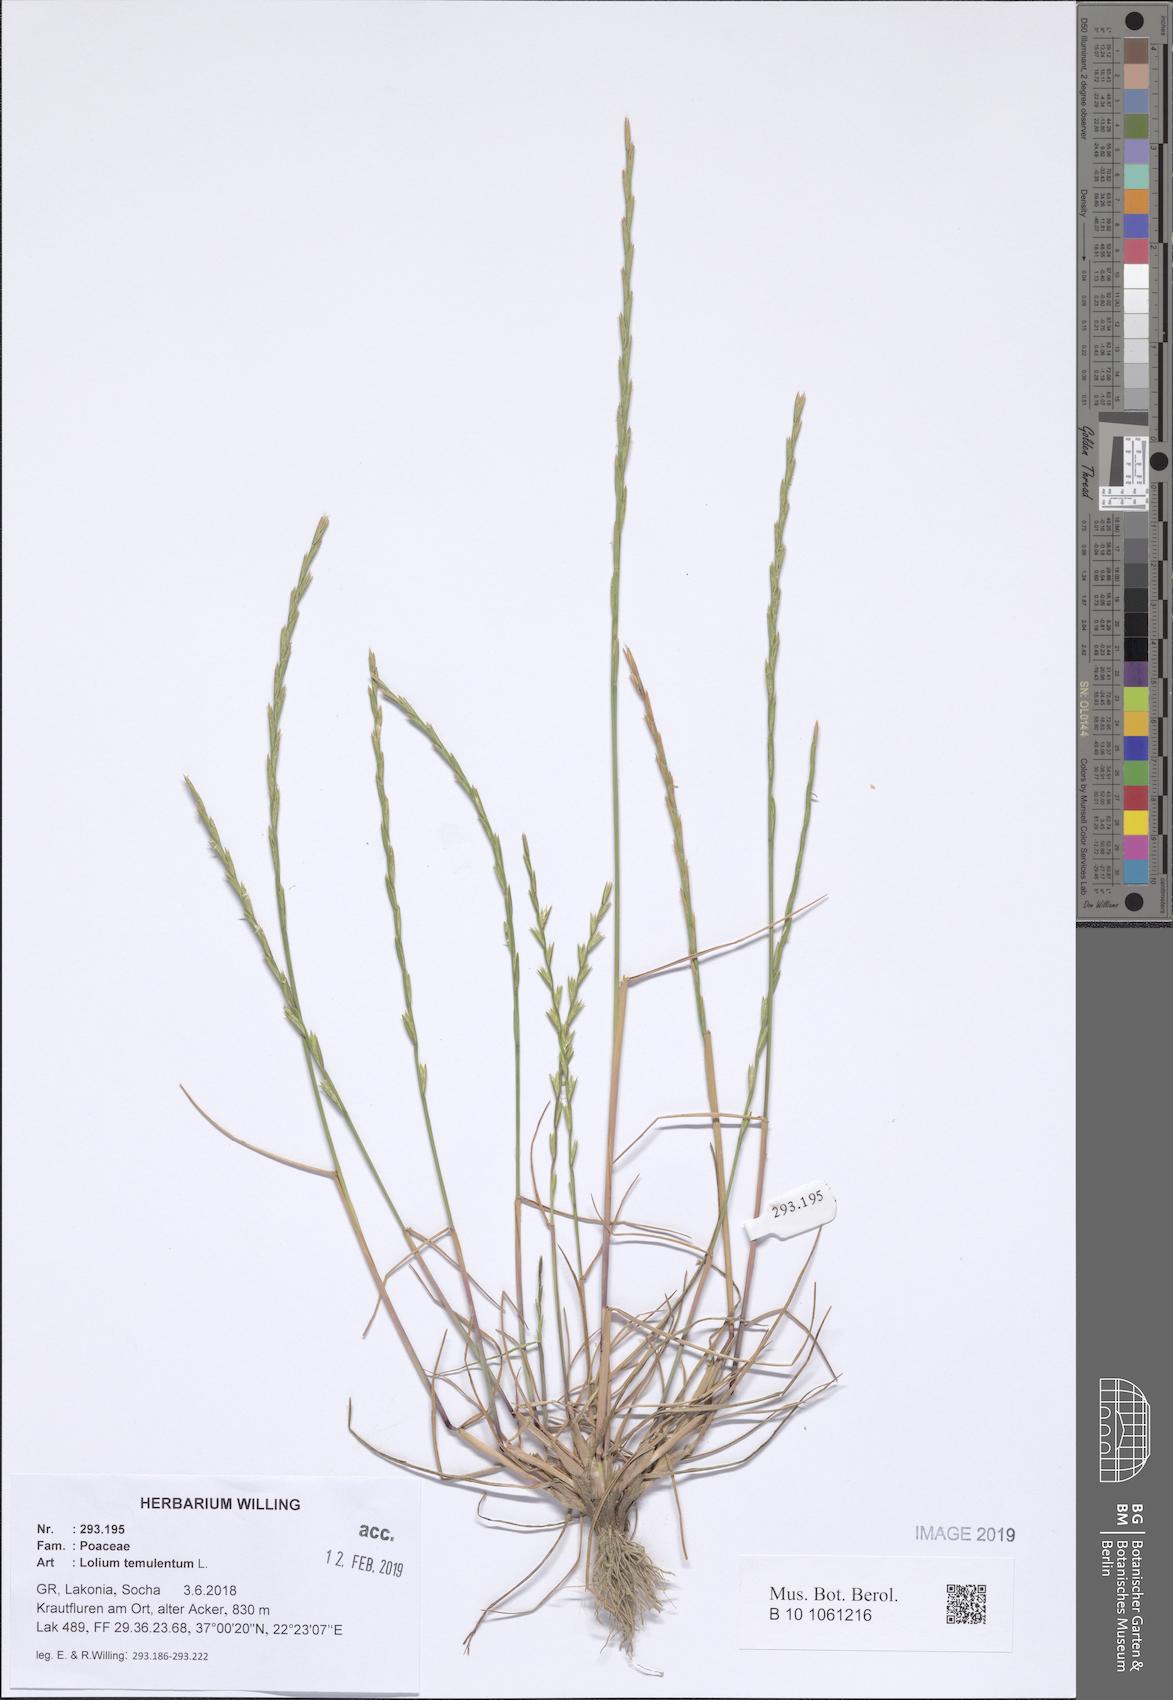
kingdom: Plantae
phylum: Tracheophyta
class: Liliopsida
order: Poales
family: Poaceae
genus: Lolium
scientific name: Lolium temulentum
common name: Darnel
